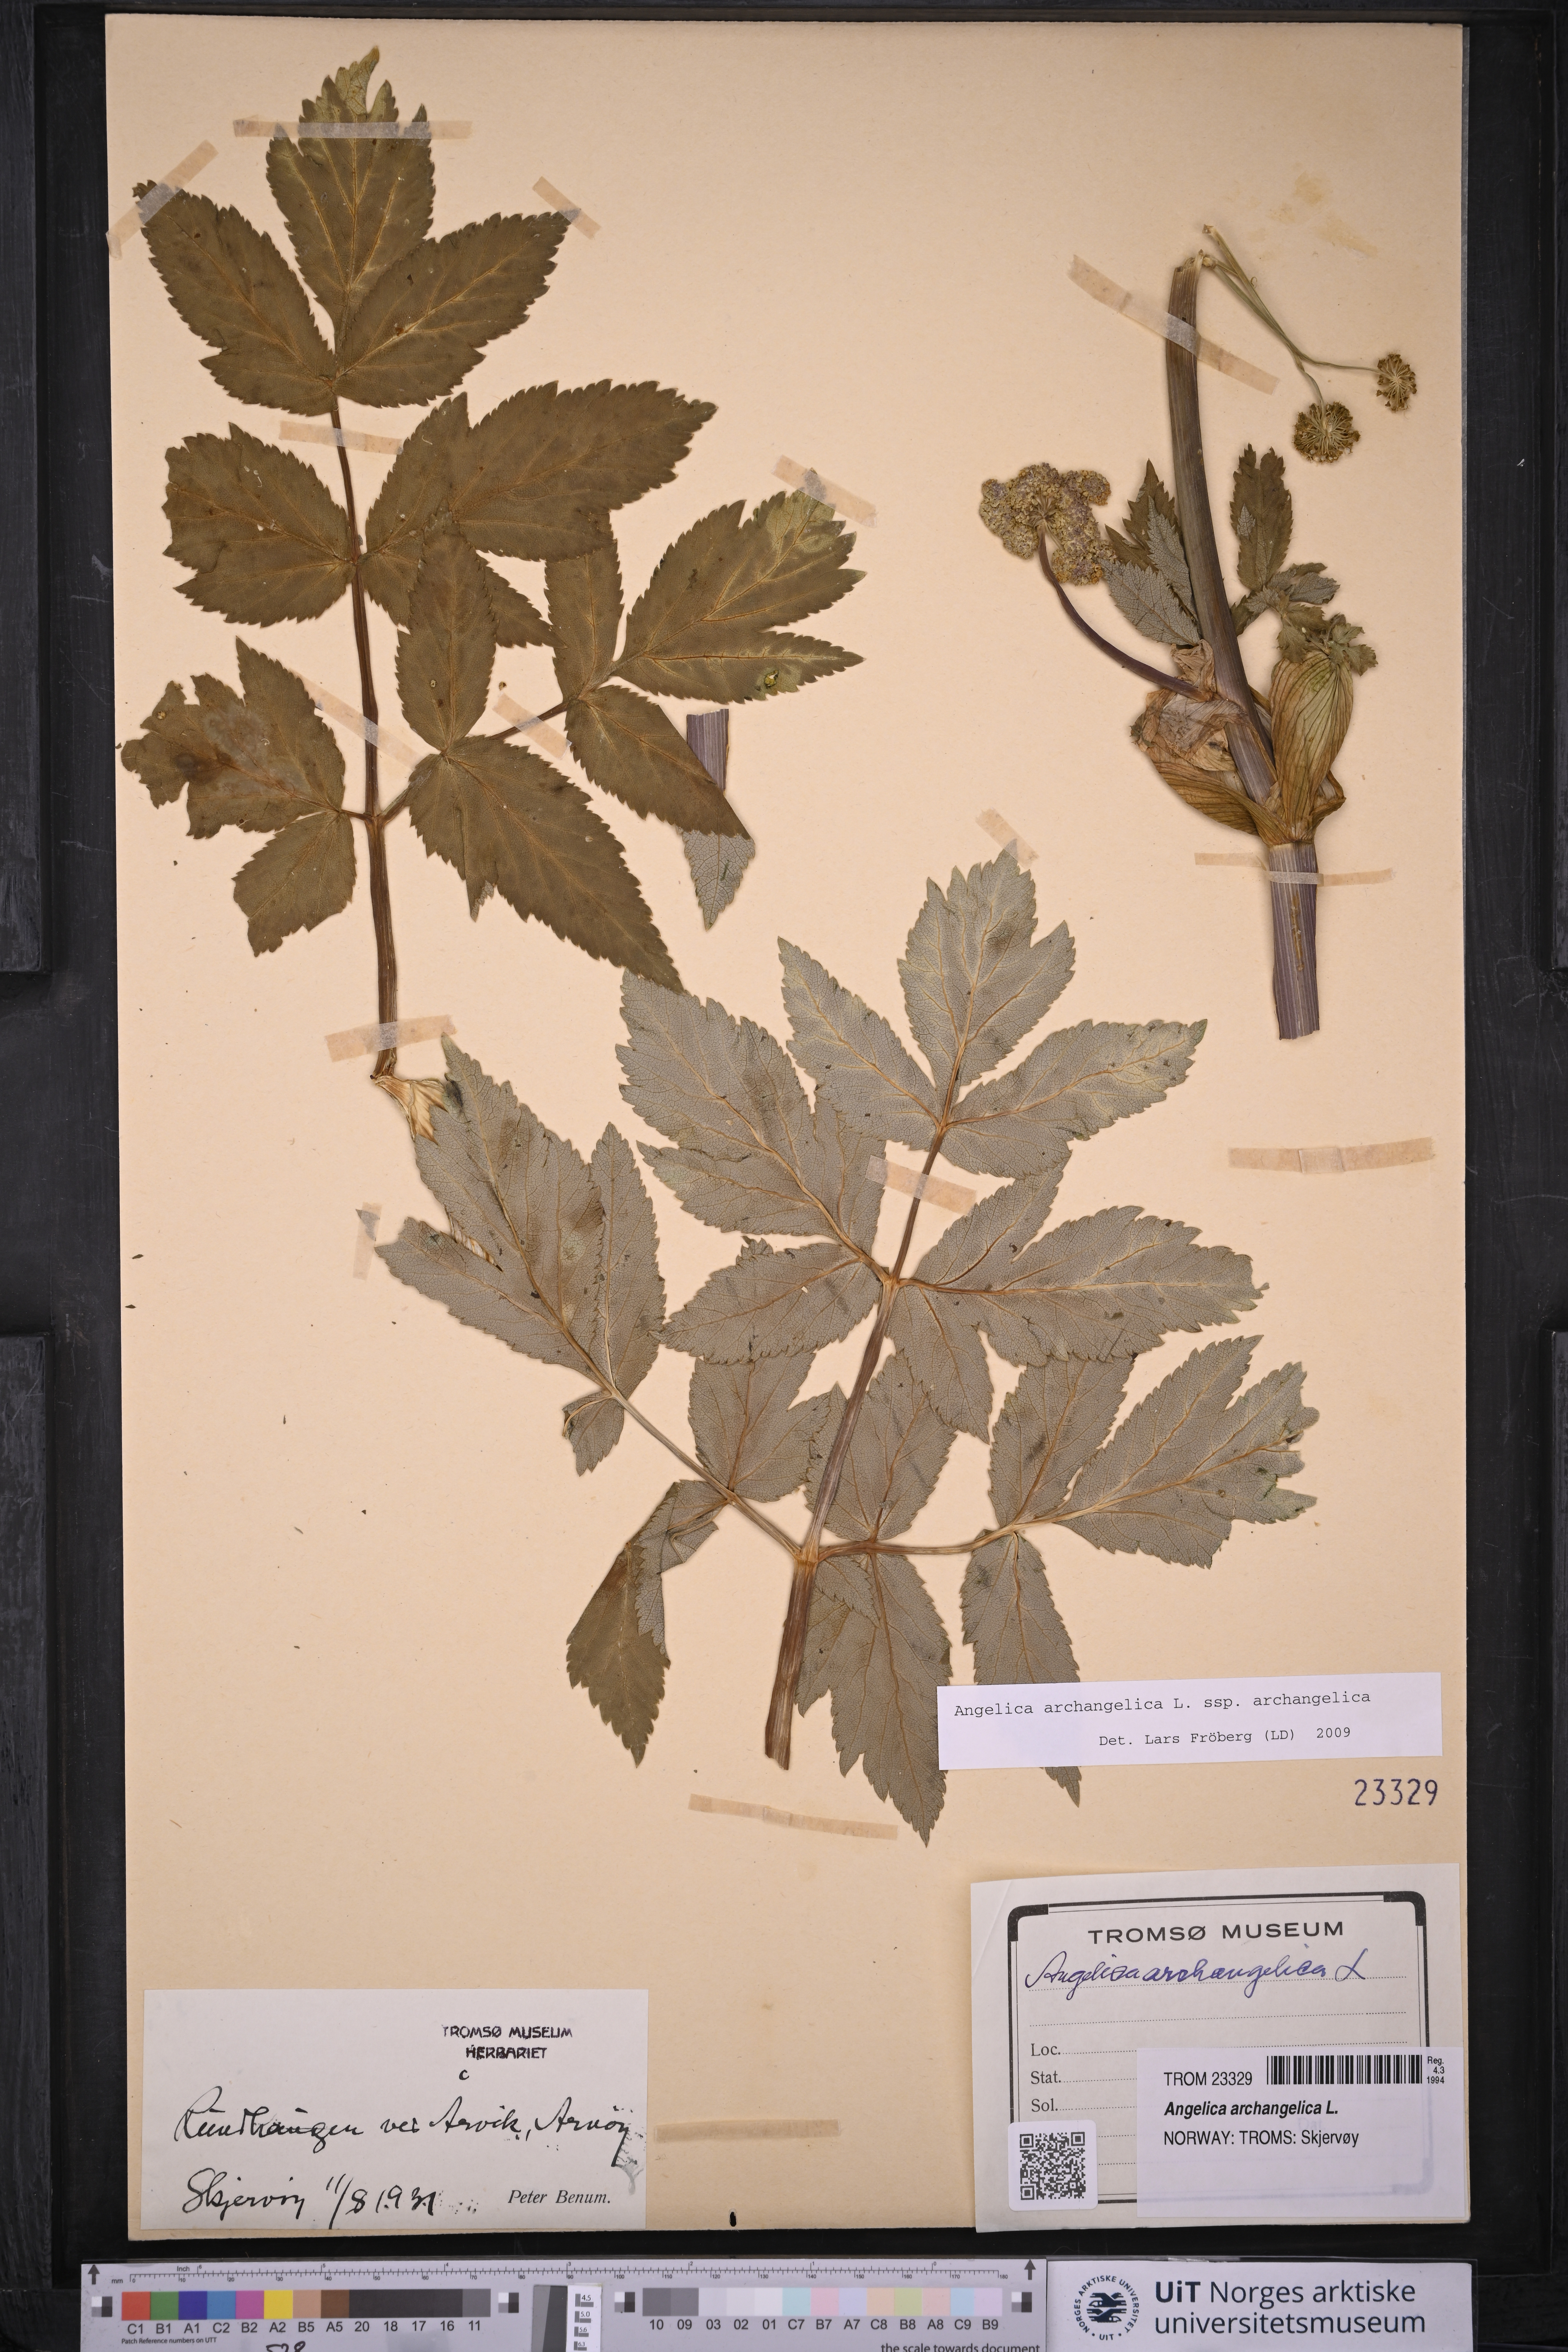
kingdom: Plantae
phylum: Tracheophyta
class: Magnoliopsida
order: Apiales
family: Apiaceae
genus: Angelica
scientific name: Angelica archangelica
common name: Garden angelica
